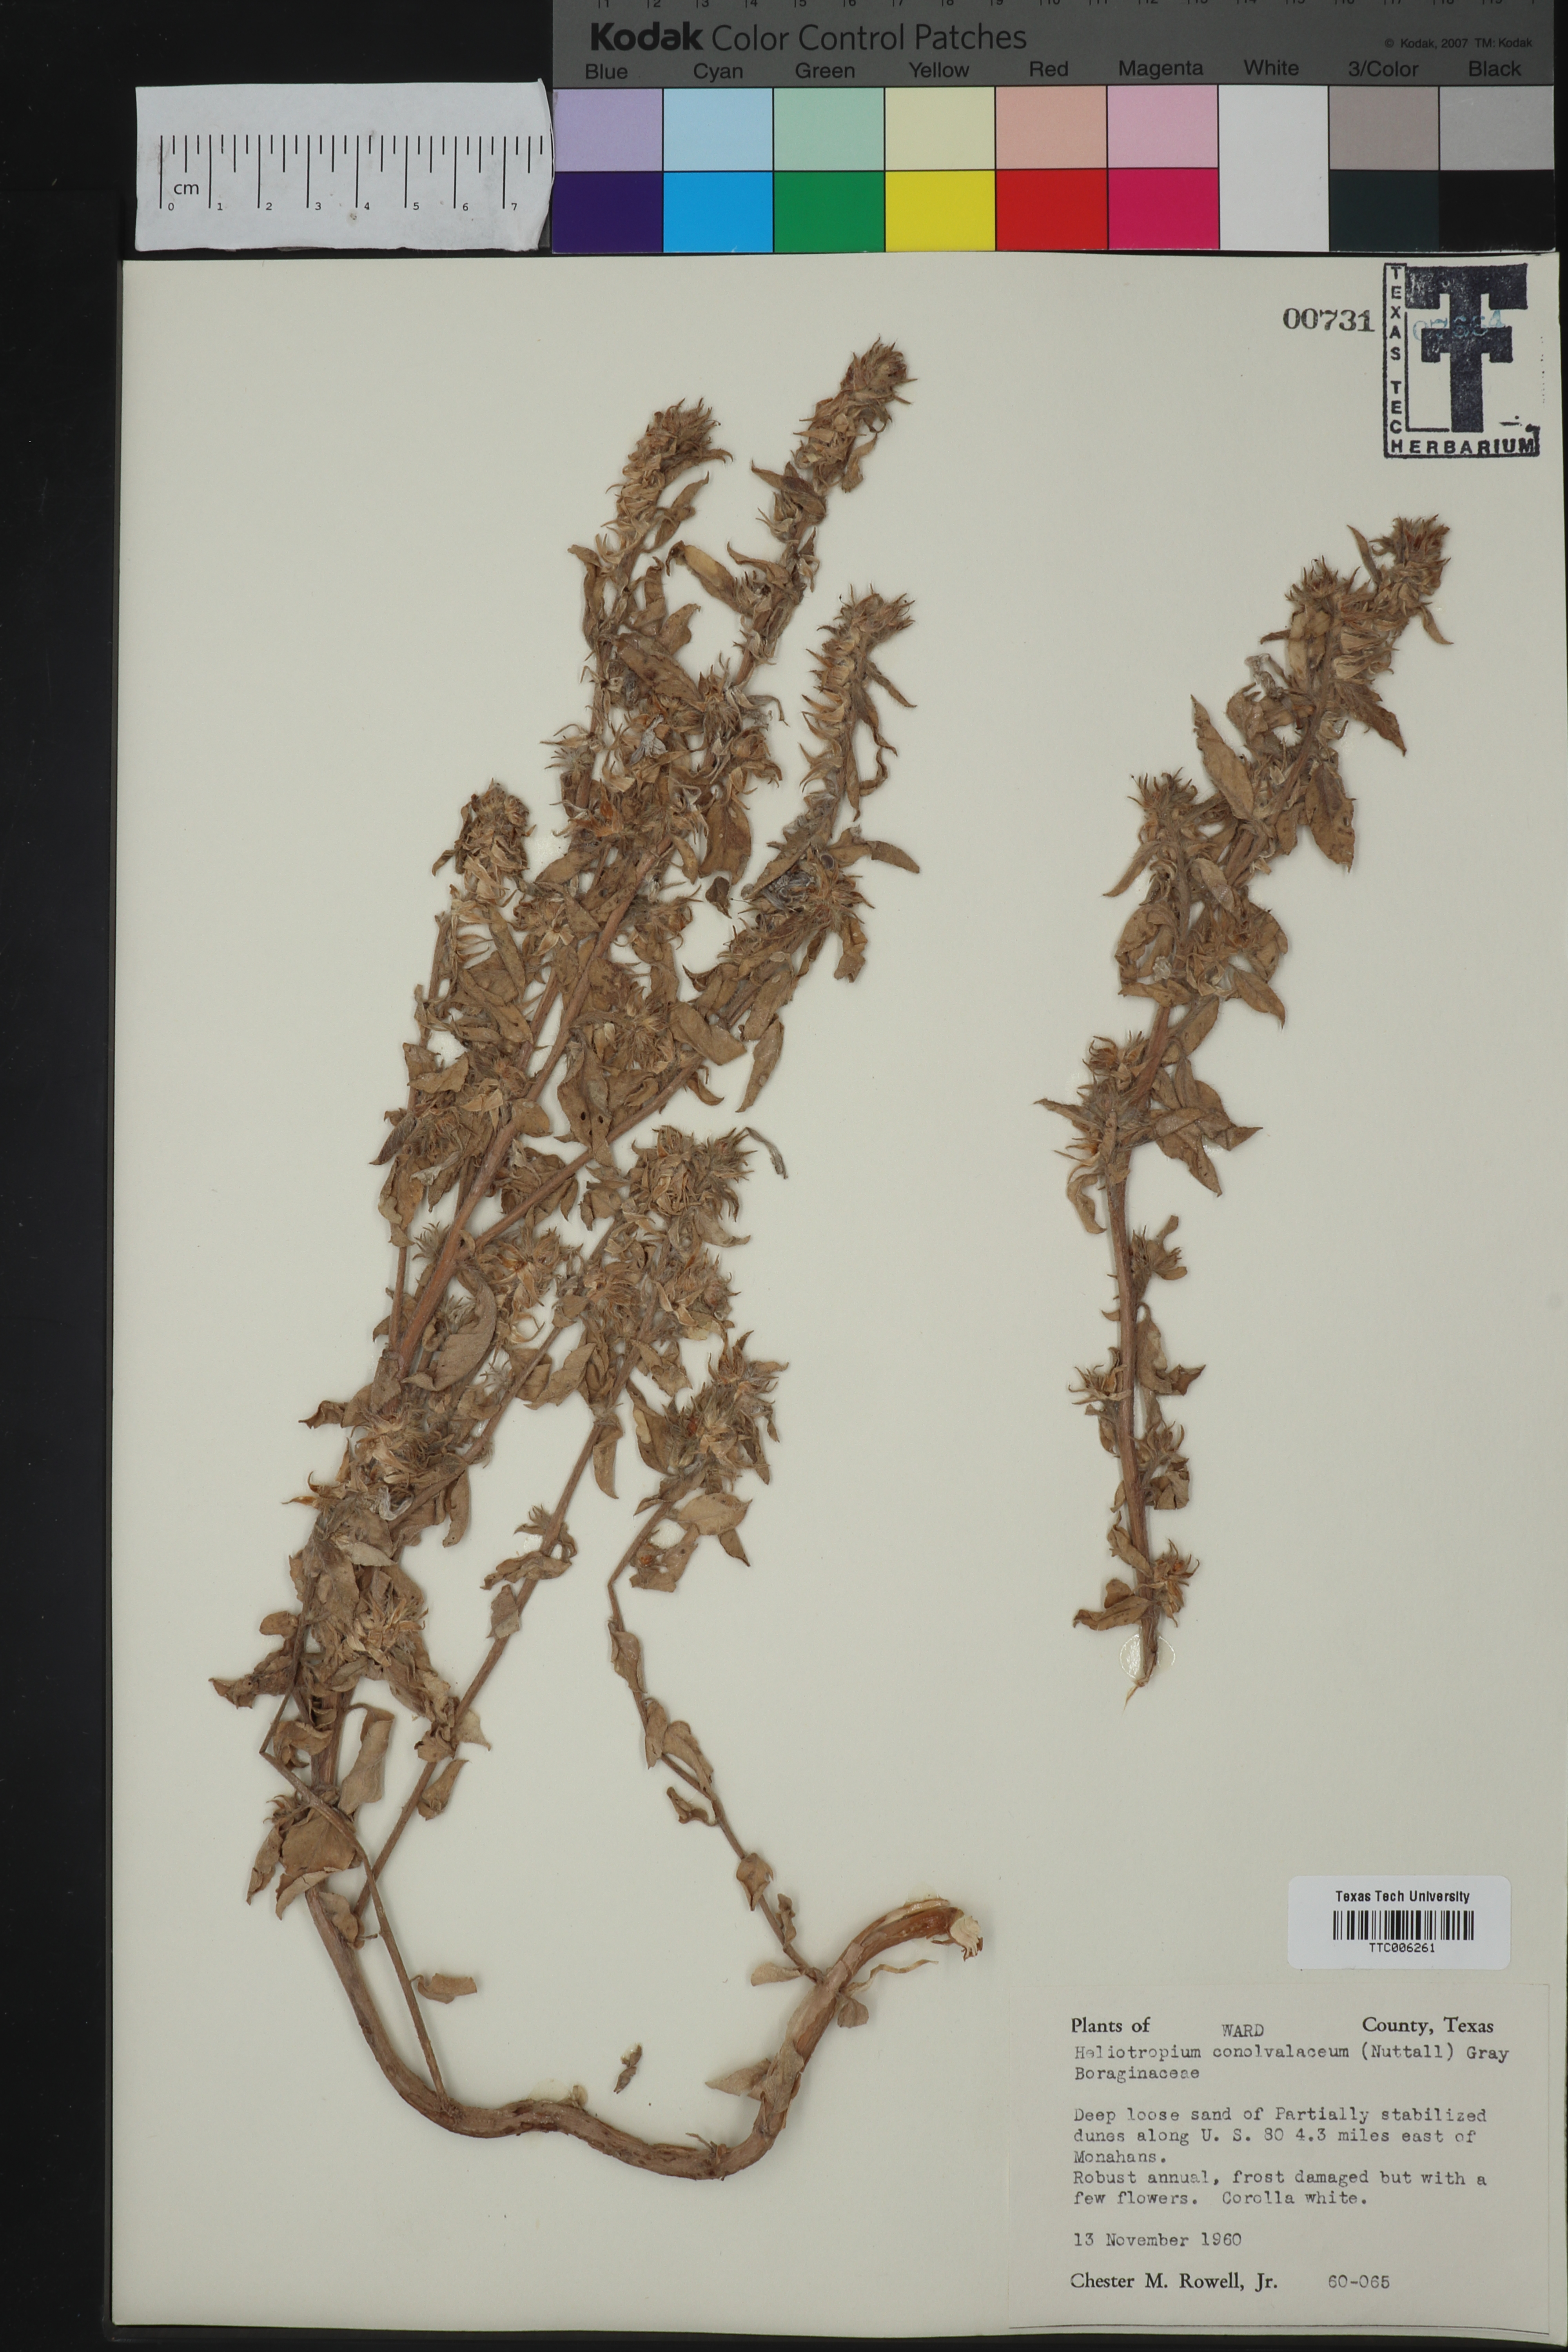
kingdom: Plantae
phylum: Tracheophyta
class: Magnoliopsida
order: Boraginales
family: Heliotropiaceae
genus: Euploca
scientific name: Euploca convolvulacea
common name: Bindweed heliotrope
